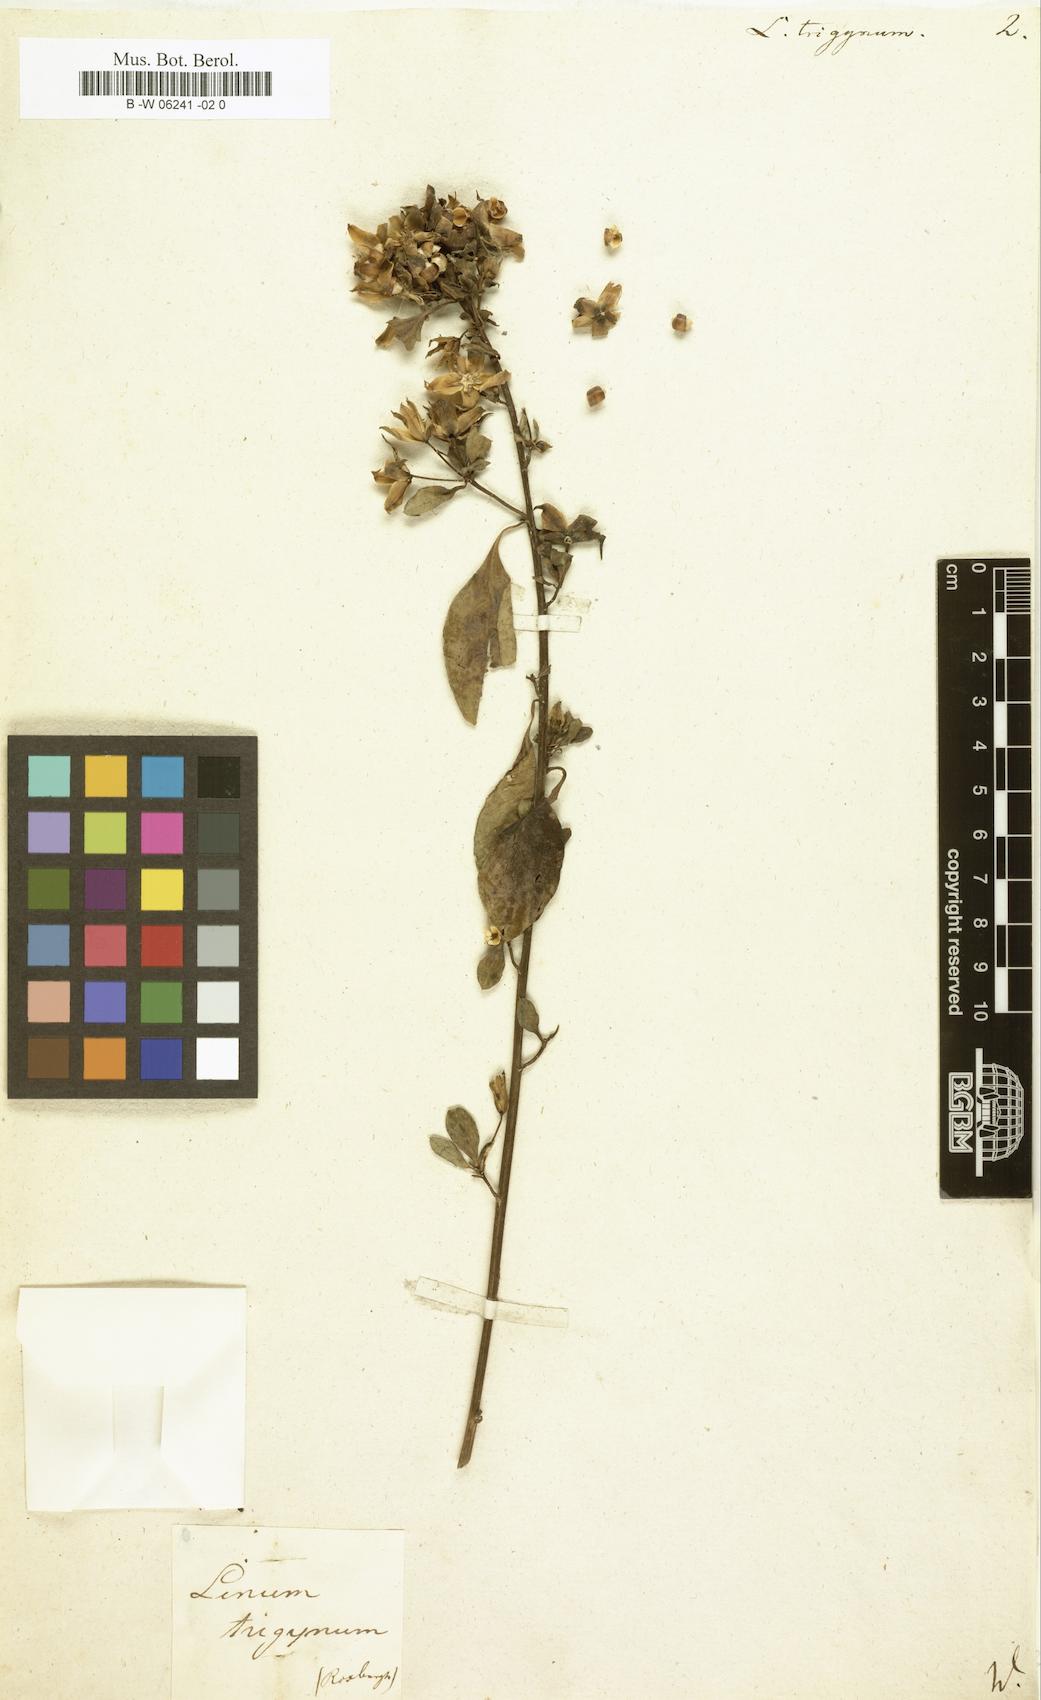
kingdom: Plantae
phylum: Tracheophyta
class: Magnoliopsida
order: Malpighiales
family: Linaceae
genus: Linum
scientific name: Linum trigynum
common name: French flax
